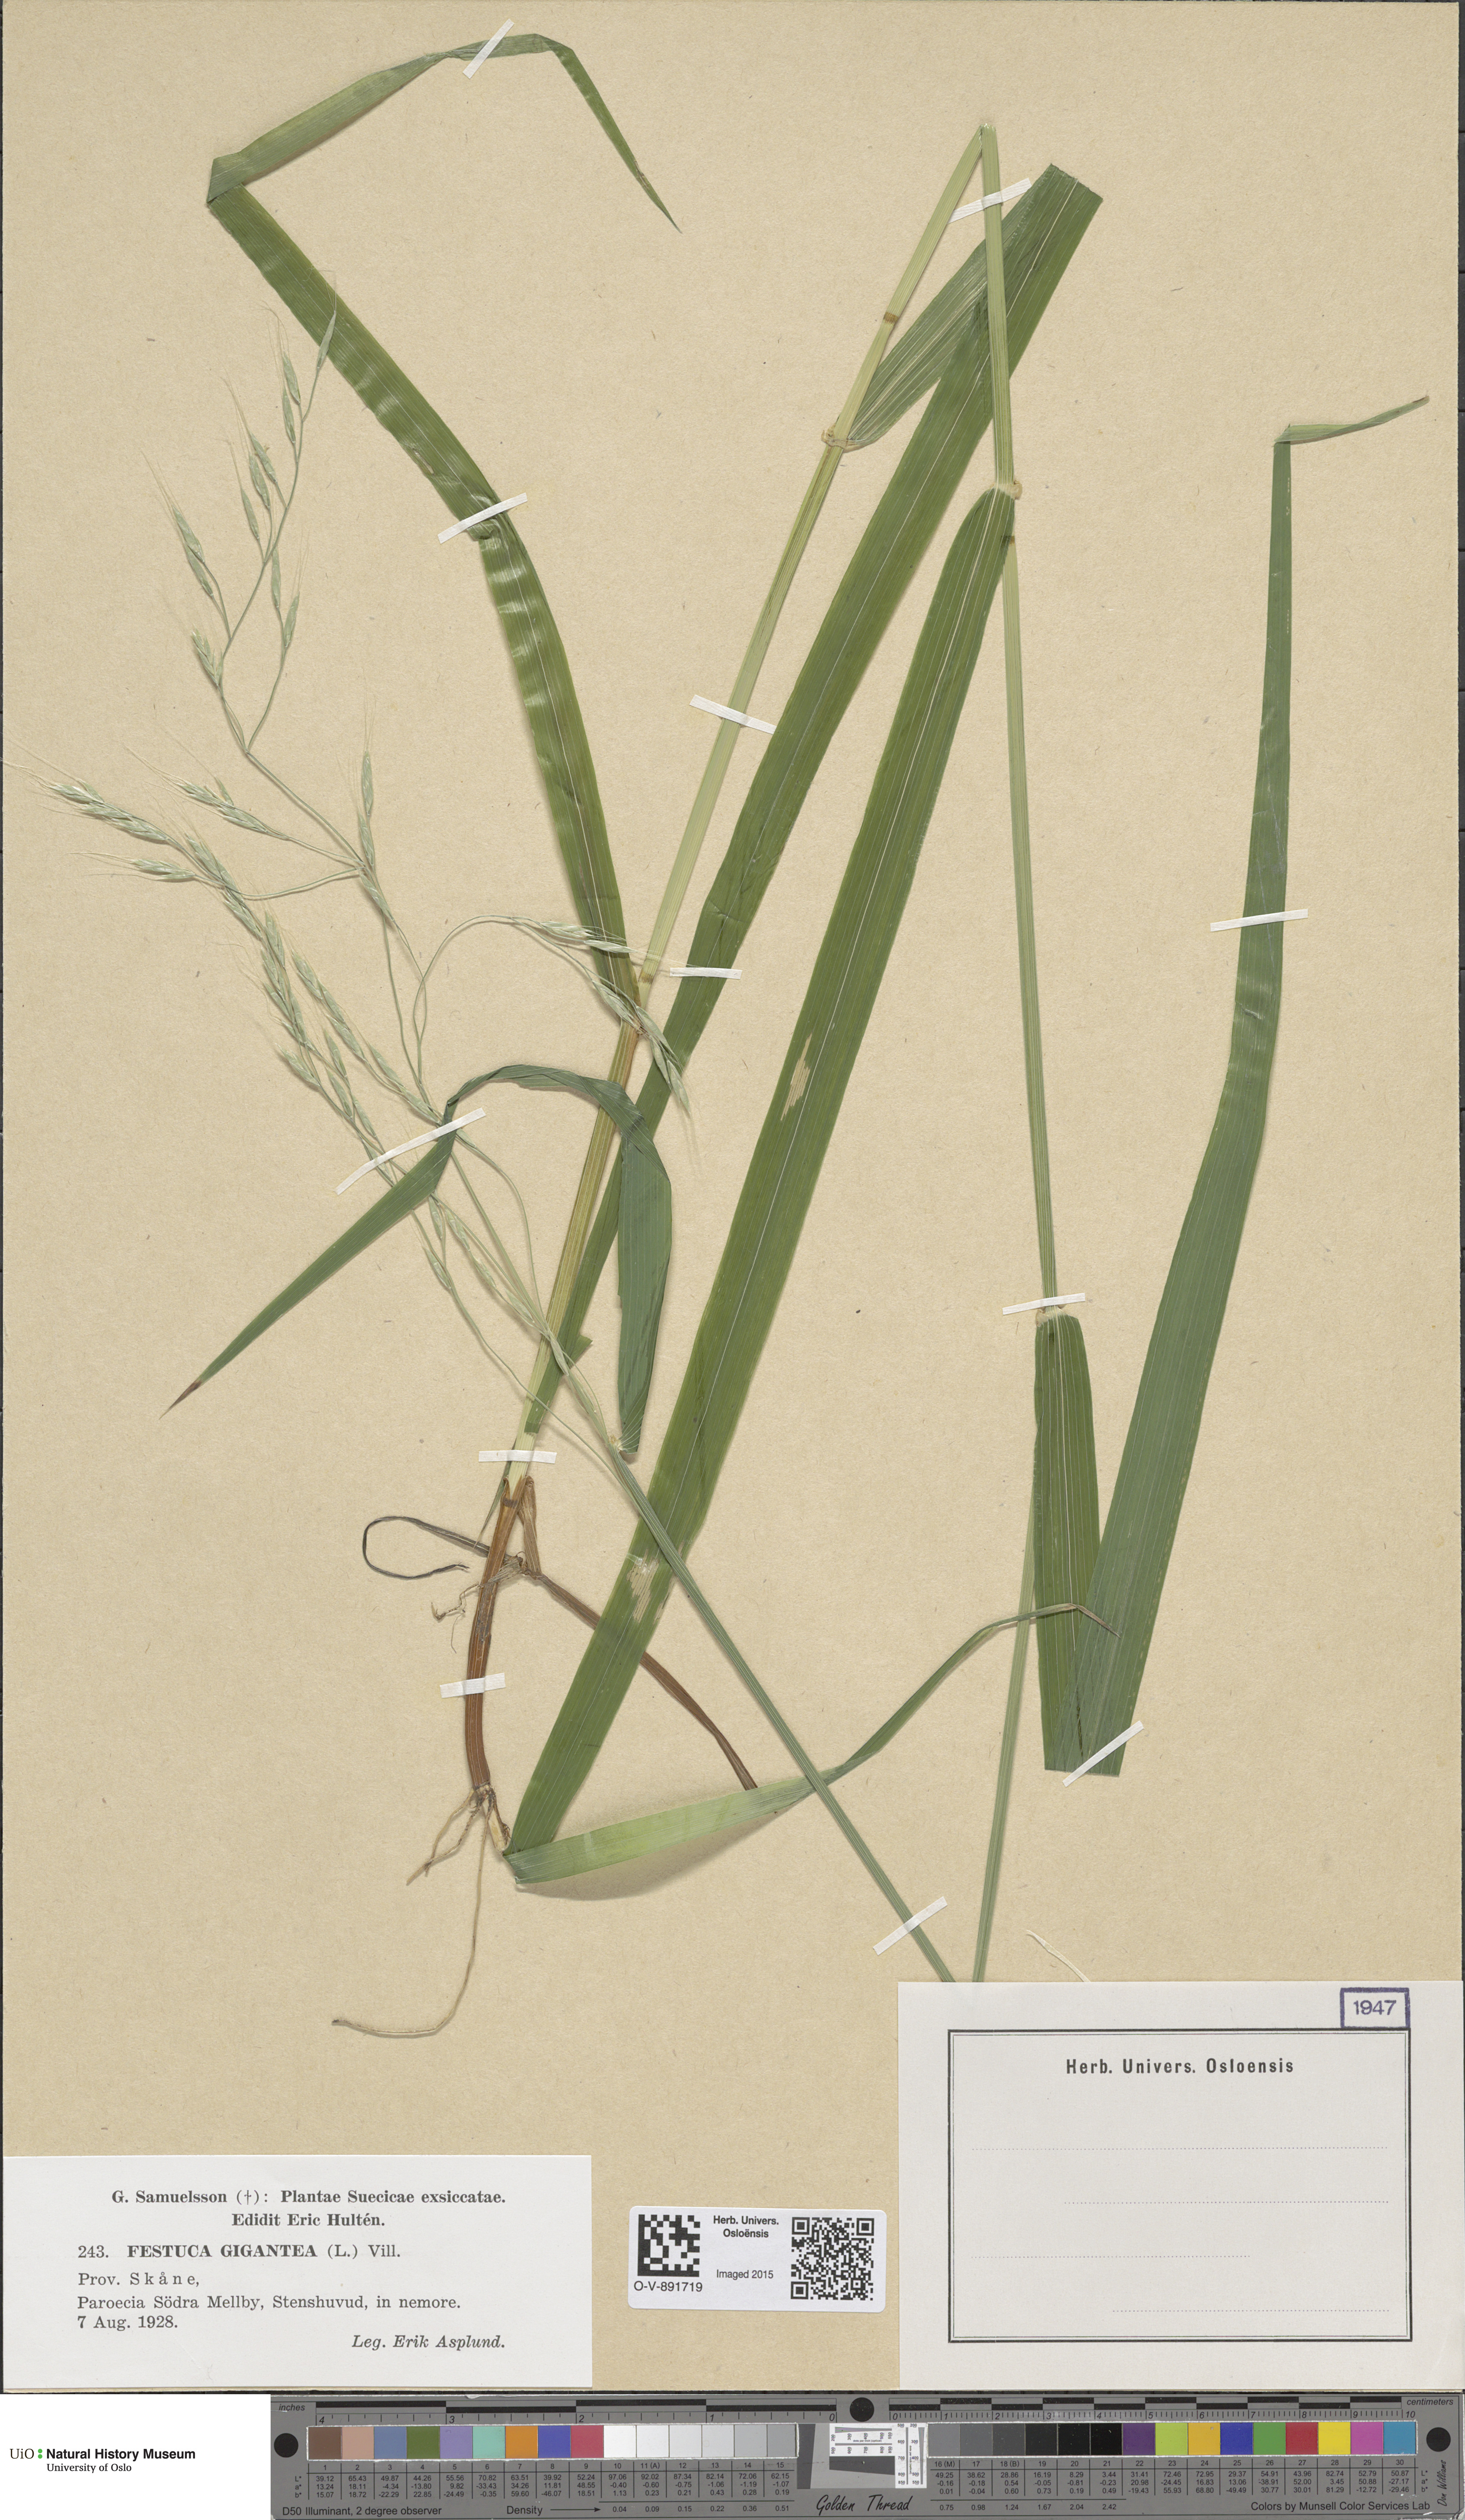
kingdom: Plantae
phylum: Tracheophyta
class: Liliopsida
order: Poales
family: Poaceae
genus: Lolium
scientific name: Lolium giganteum
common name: Giant fescue
